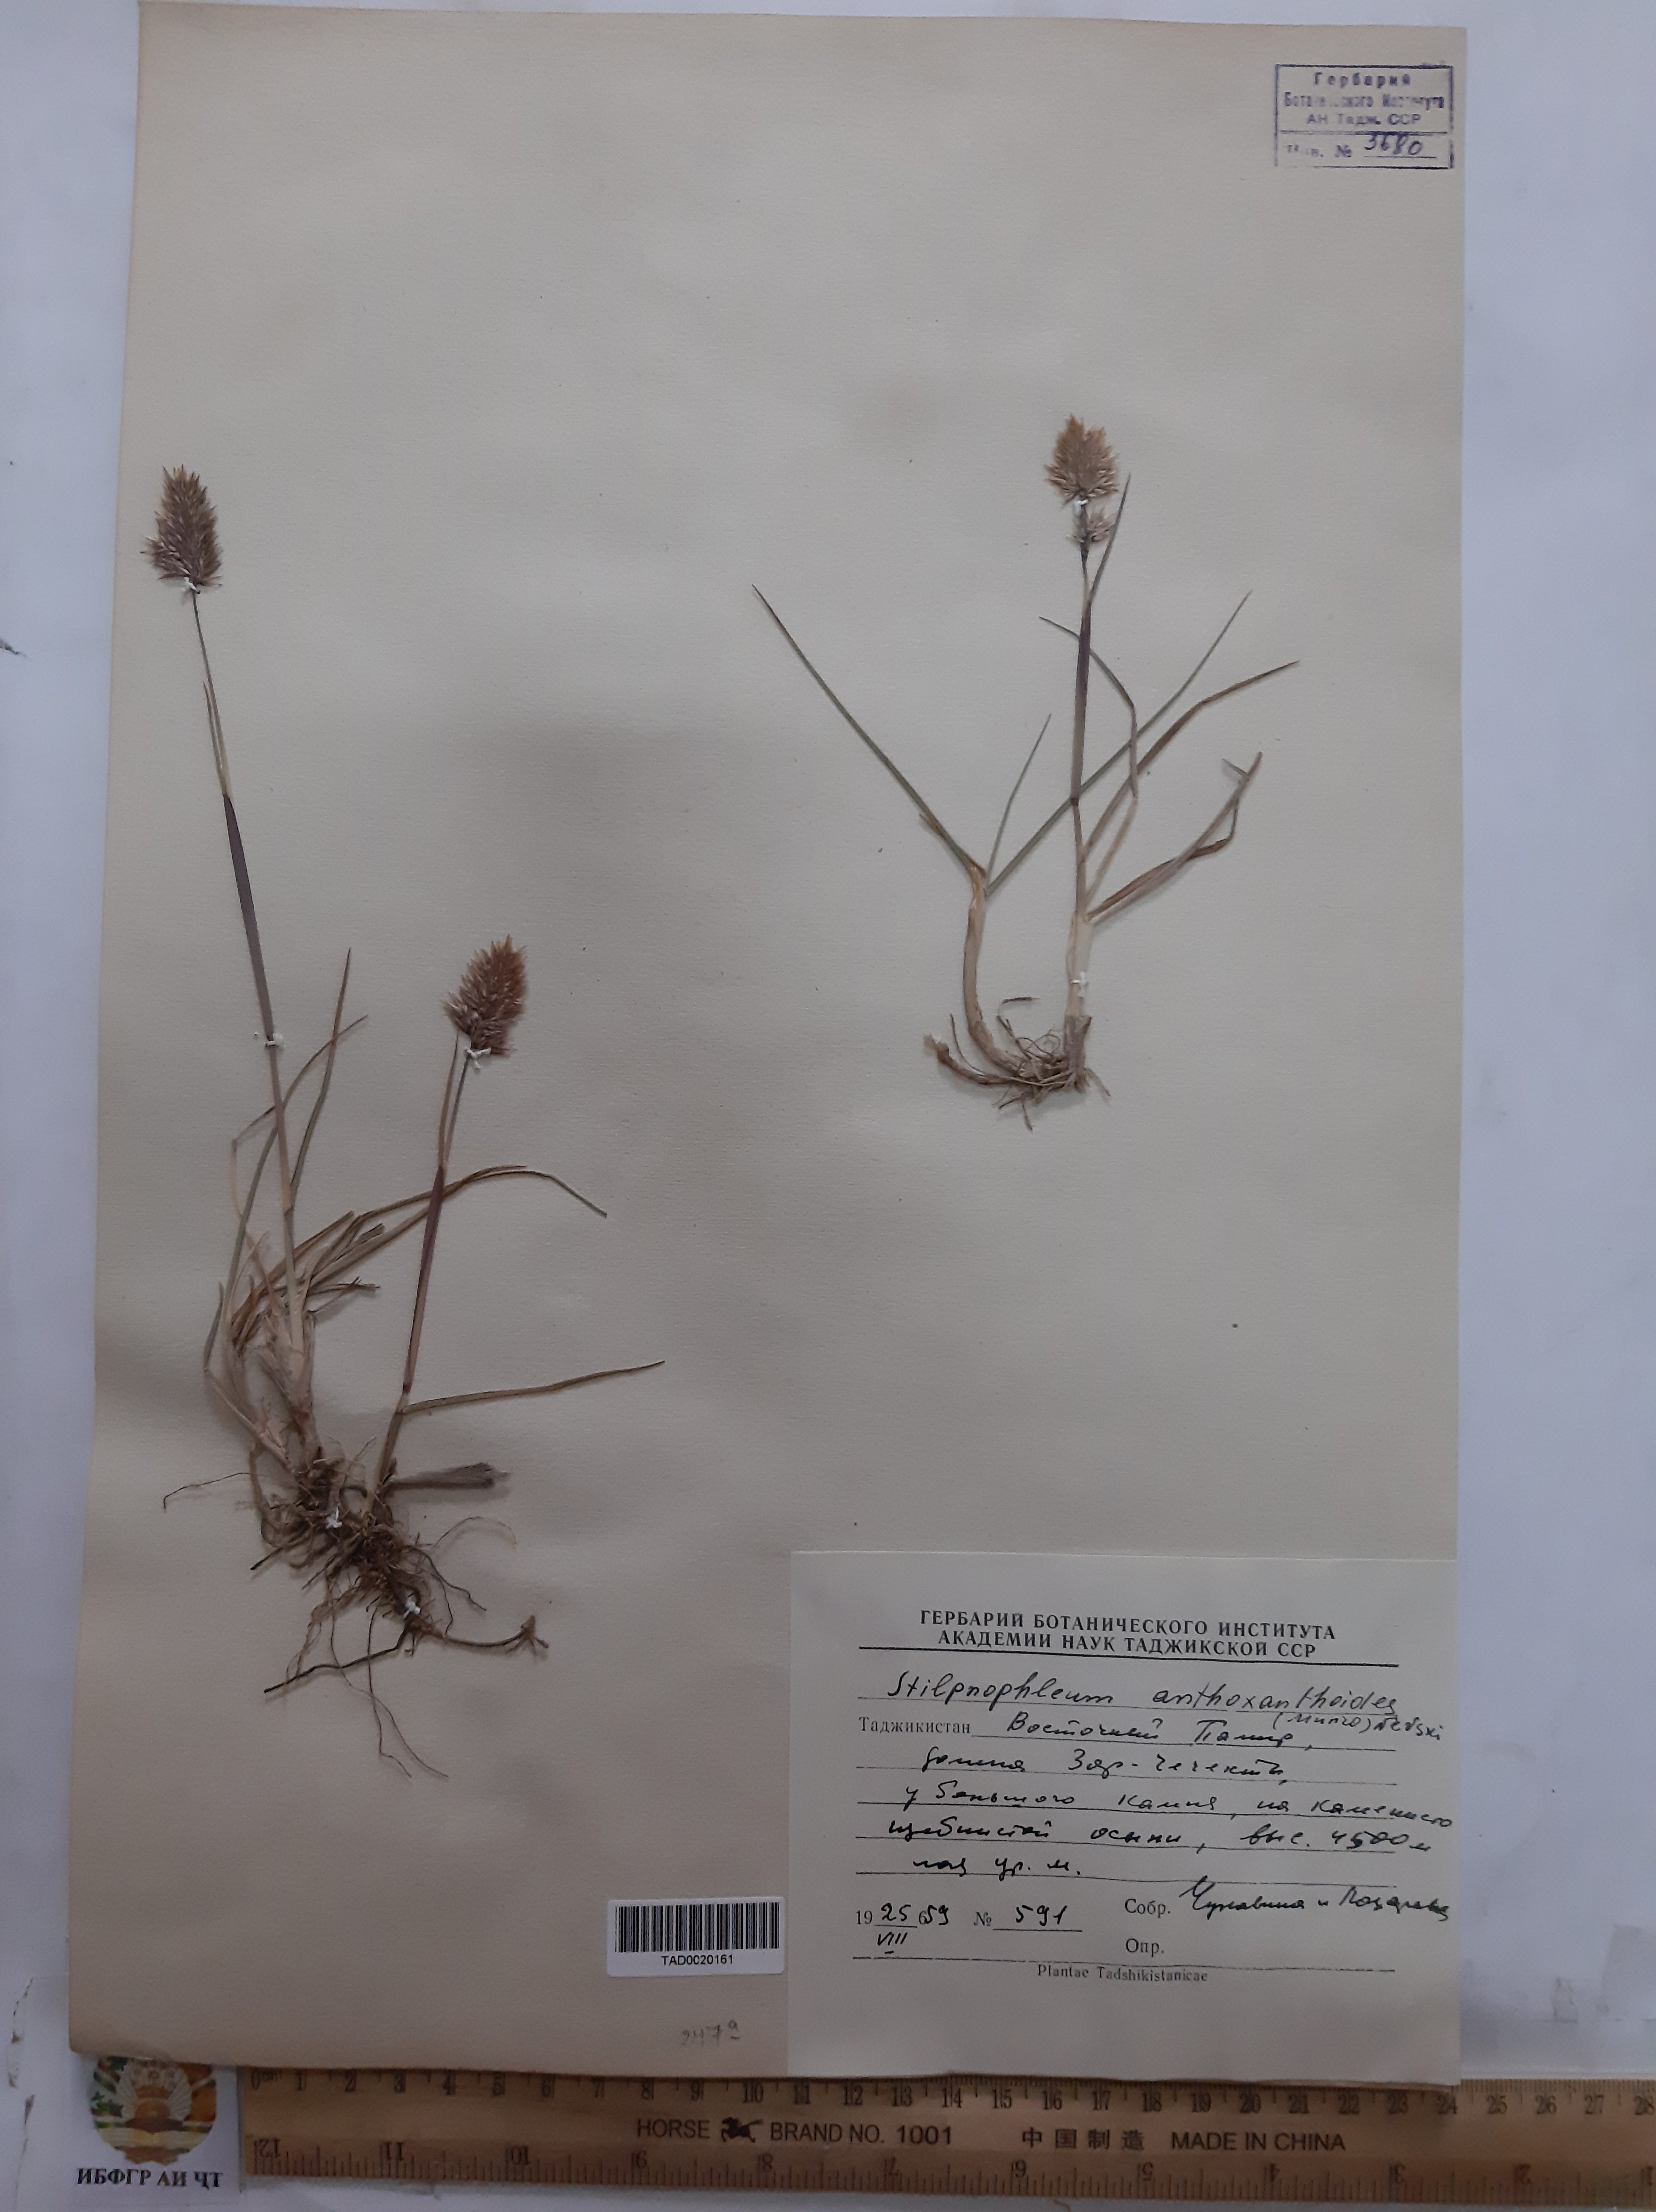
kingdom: Plantae
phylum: Tracheophyta
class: Liliopsida
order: Poales
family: Poaceae
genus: Calamagrostis
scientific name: Calamagrostis anthoxanthoides
